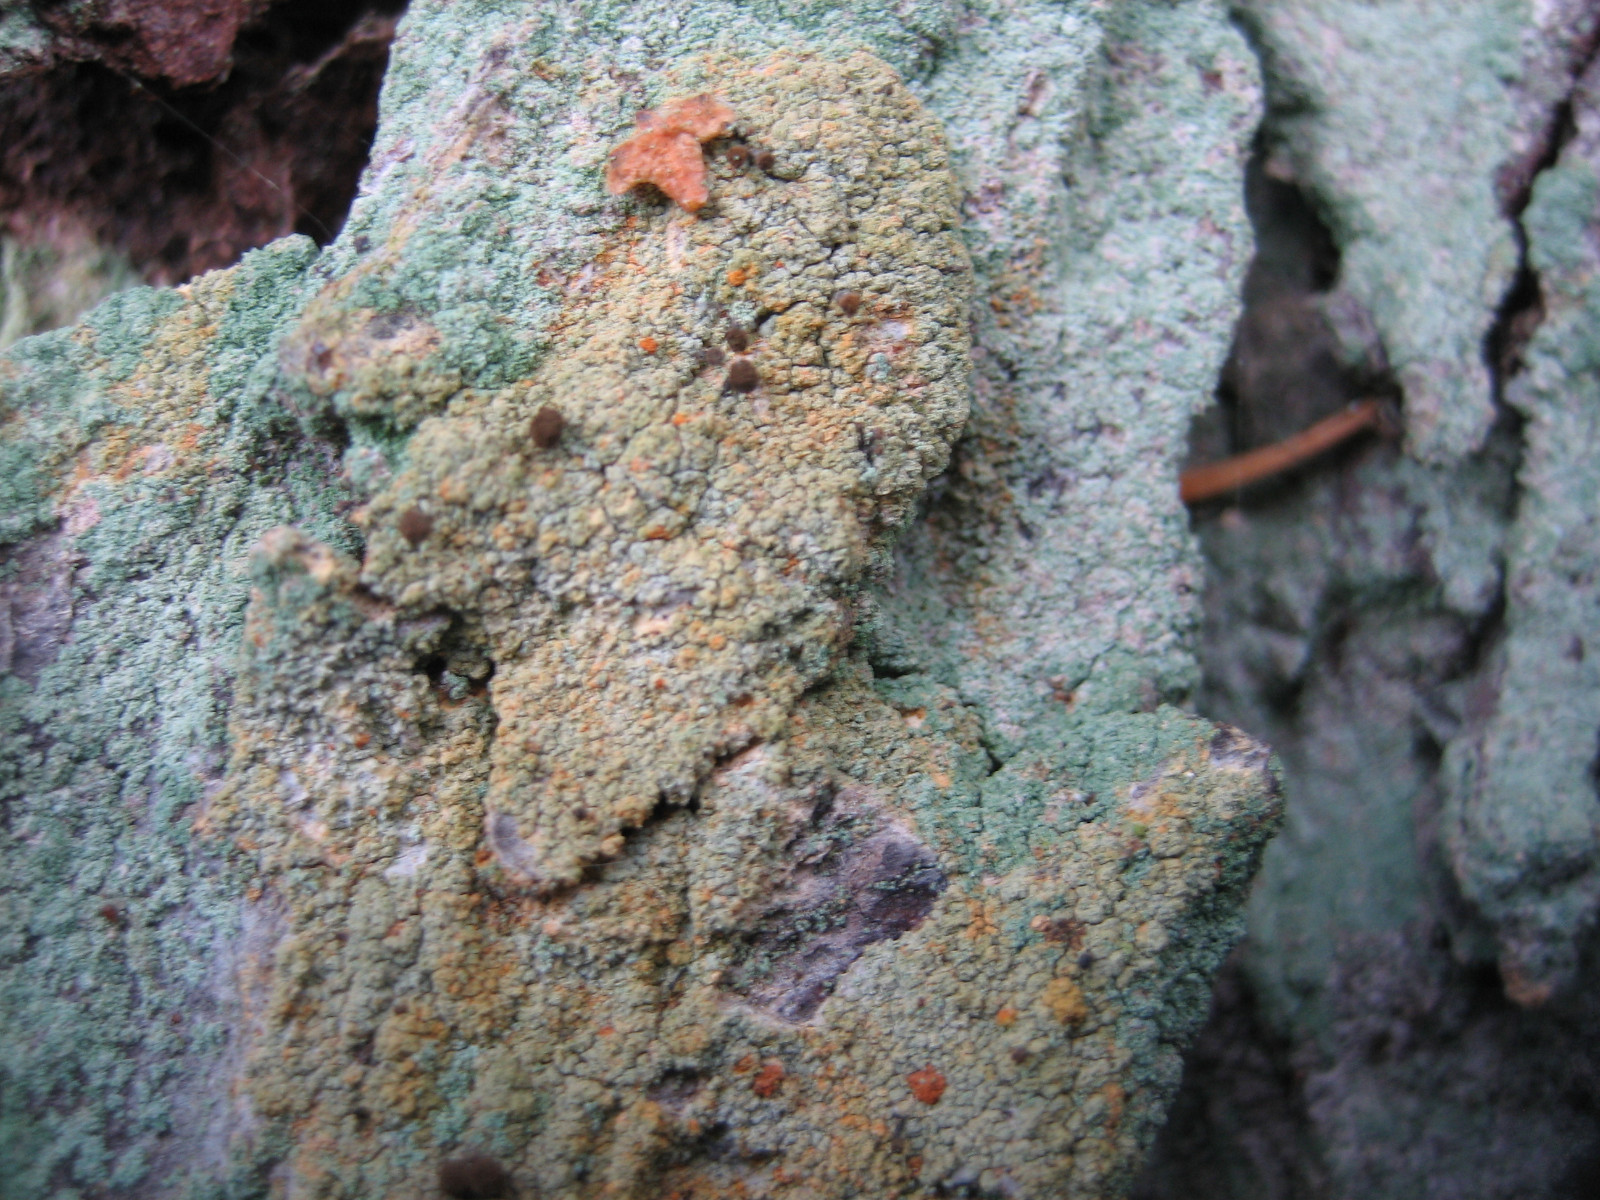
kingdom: Fungi
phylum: Ascomycota
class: Coniocybomycetes
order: Coniocybales
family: Coniocybaceae
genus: Chaenotheca
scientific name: Chaenotheca ferruginea
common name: rustbrun knappenålslav
